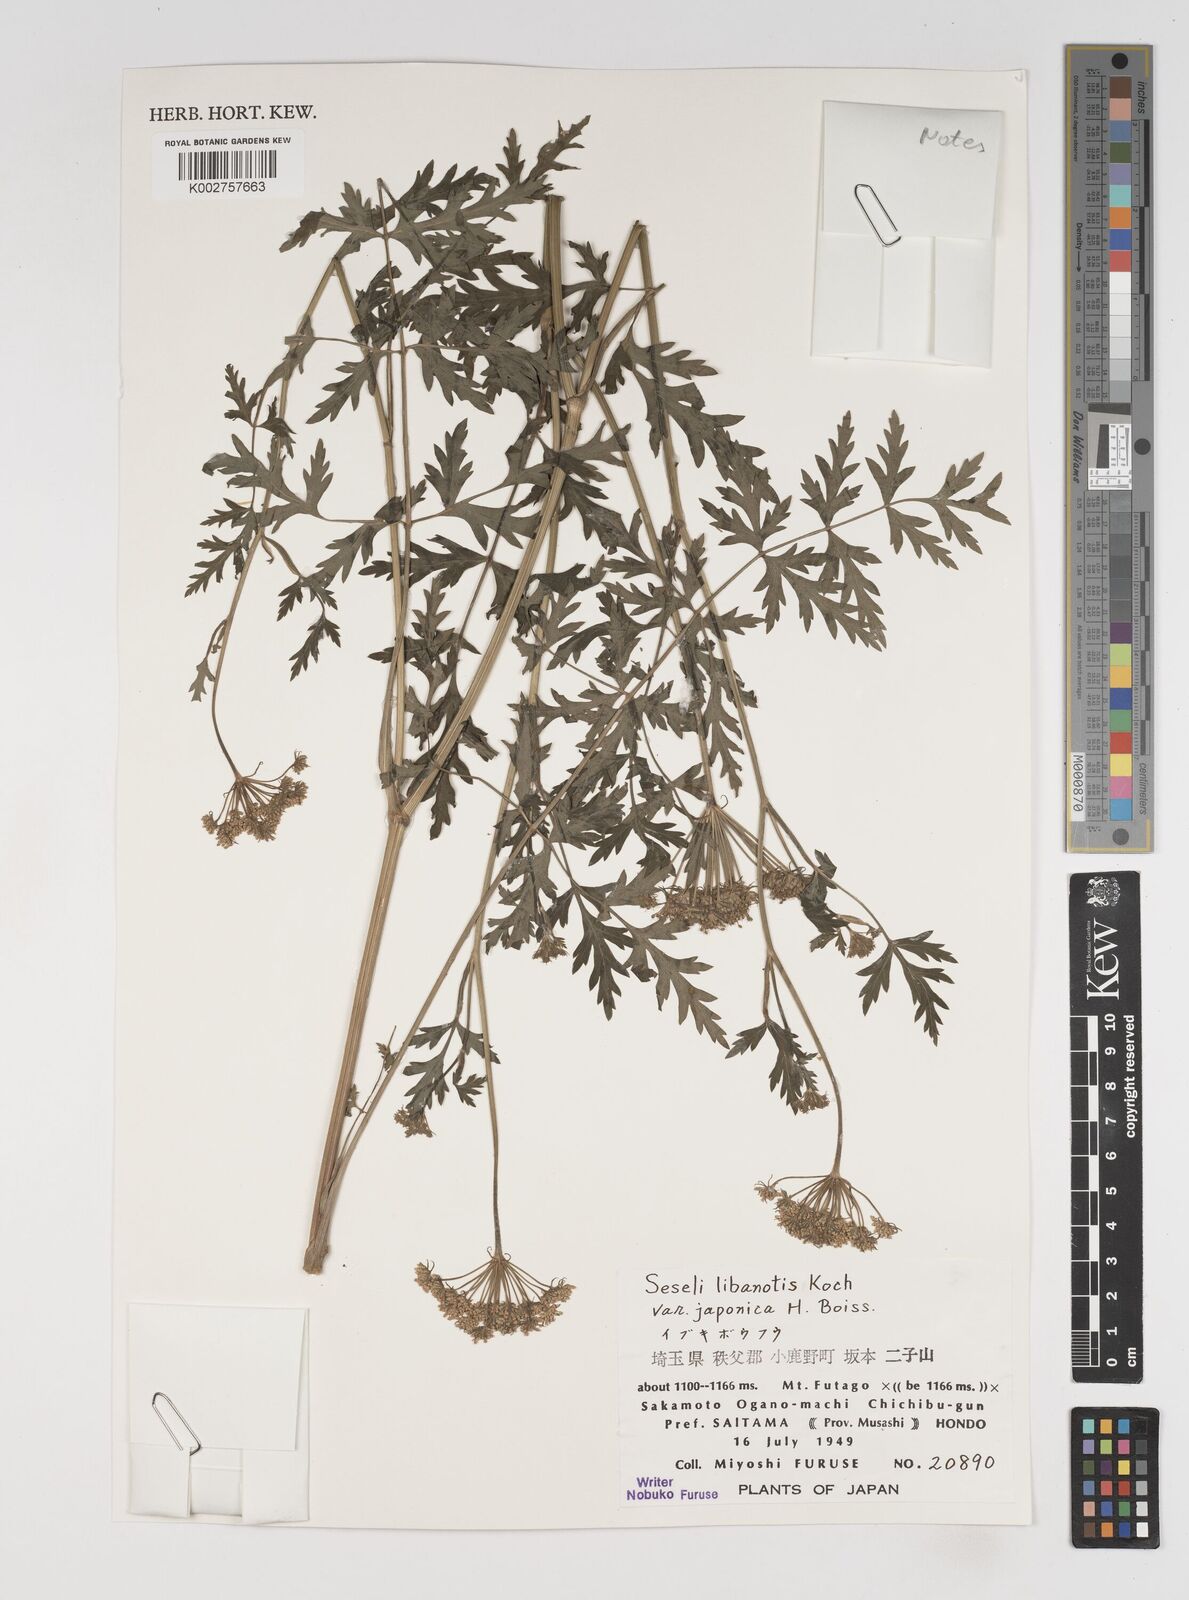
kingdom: Plantae
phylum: Tracheophyta
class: Magnoliopsida
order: Apiales
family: Apiaceae
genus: Seseli
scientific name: Seseli libanotis
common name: Mooncarrot
